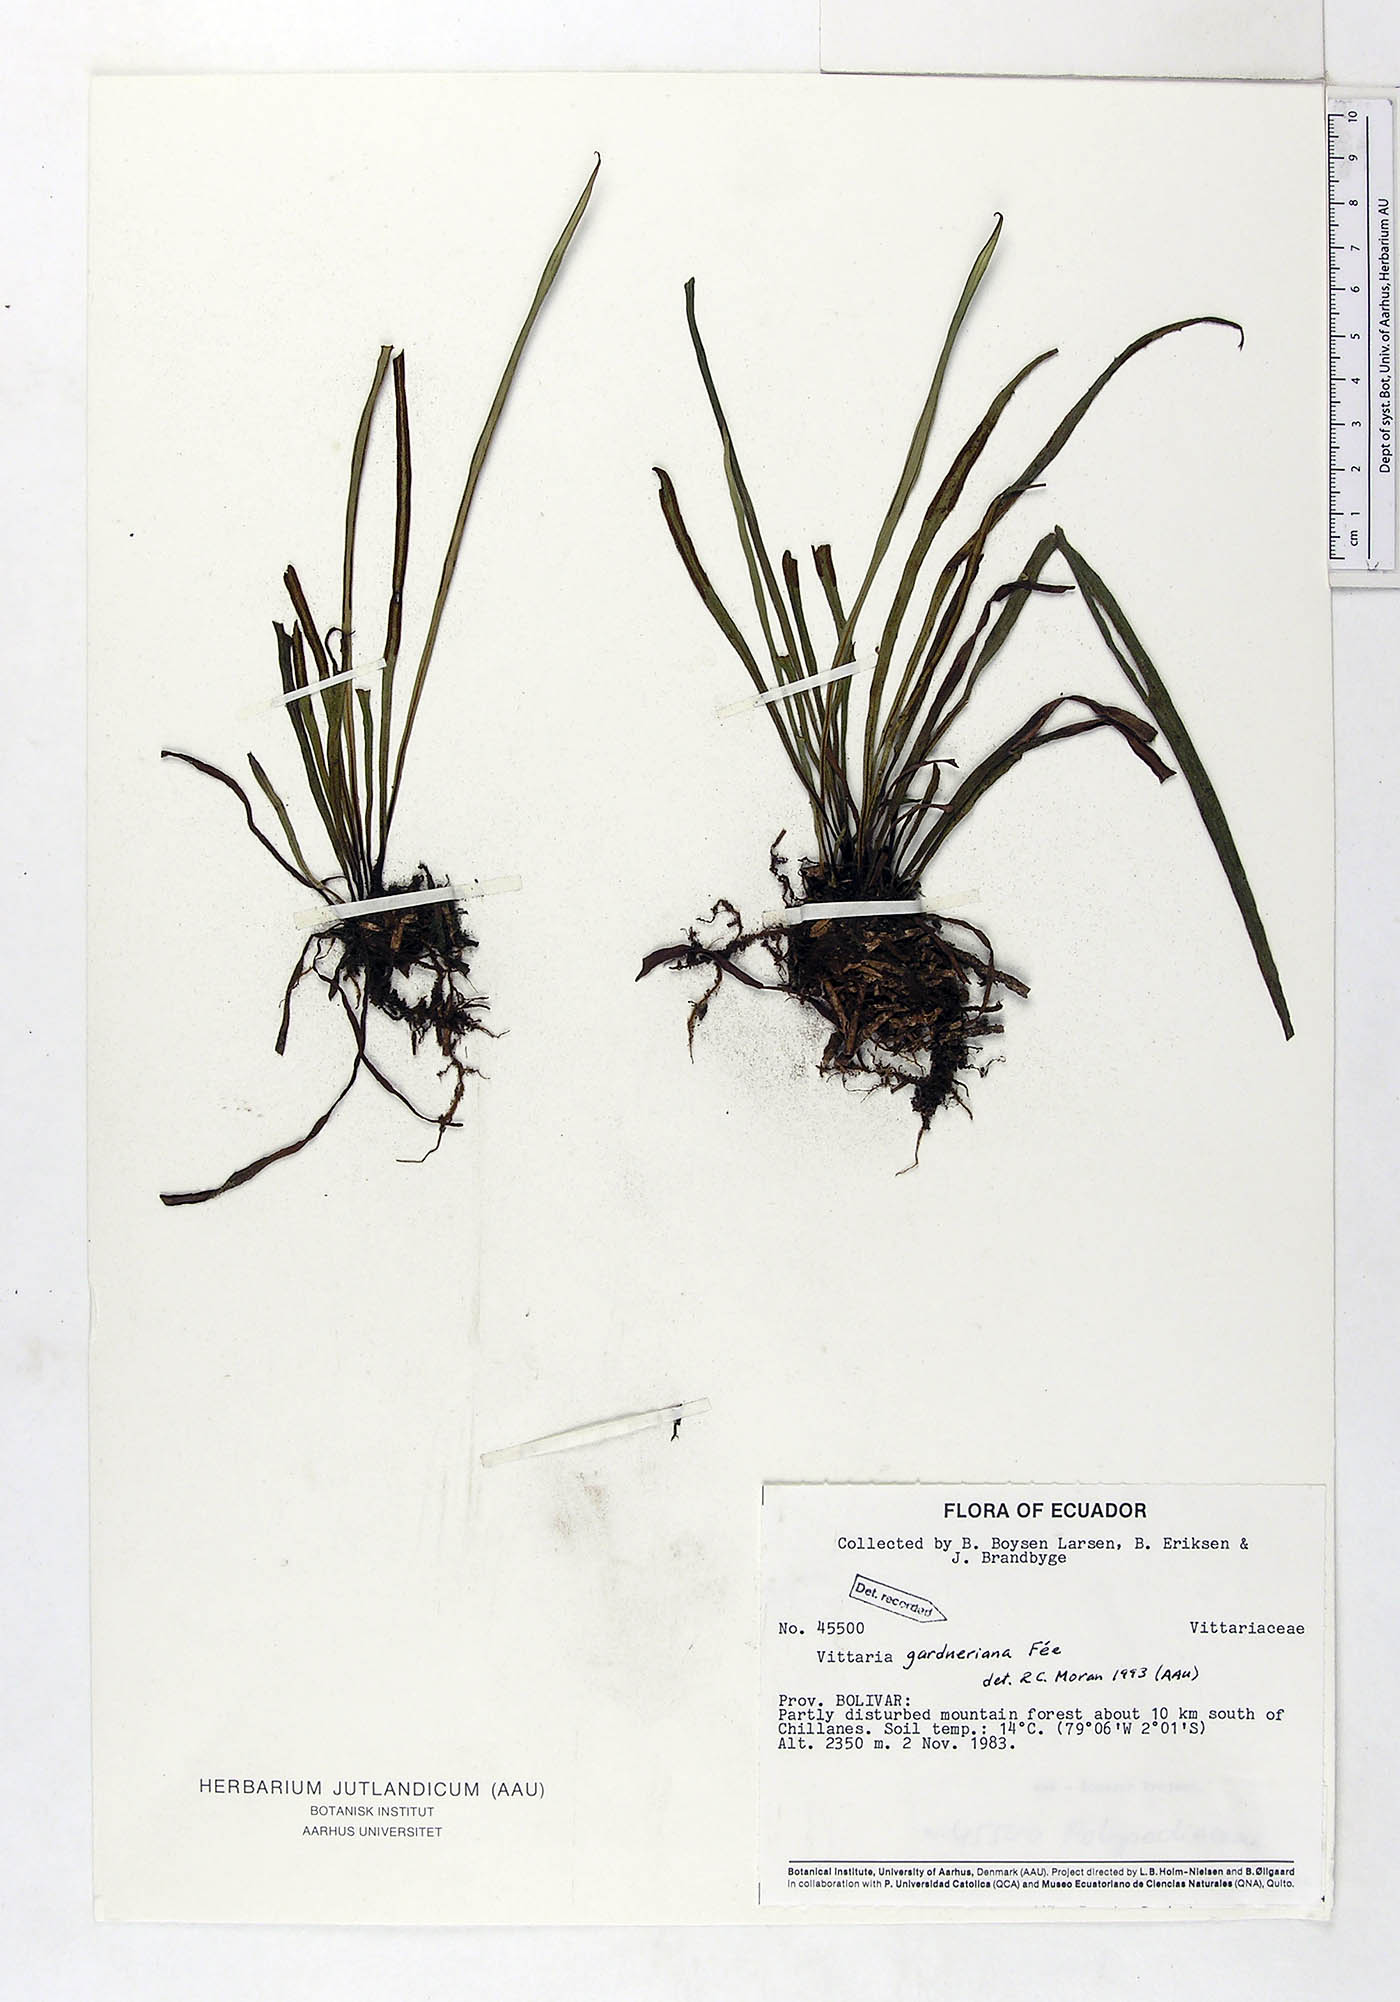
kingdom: Plantae
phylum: Tracheophyta
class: Polypodiopsida
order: Polypodiales
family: Pteridaceae
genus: Radiovittaria
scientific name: Radiovittaria gardneriana
